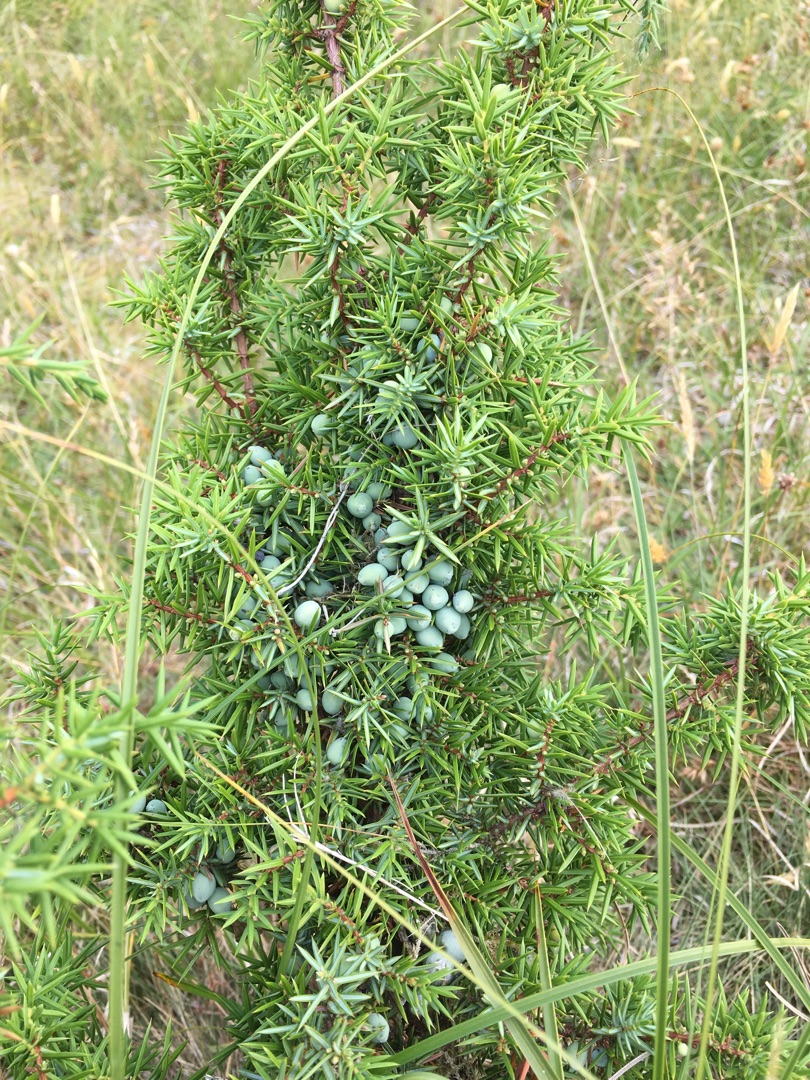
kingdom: Plantae
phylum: Tracheophyta
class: Pinopsida
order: Pinales
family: Cupressaceae
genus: Juniperus
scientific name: Juniperus communis
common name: Almindelig ene
